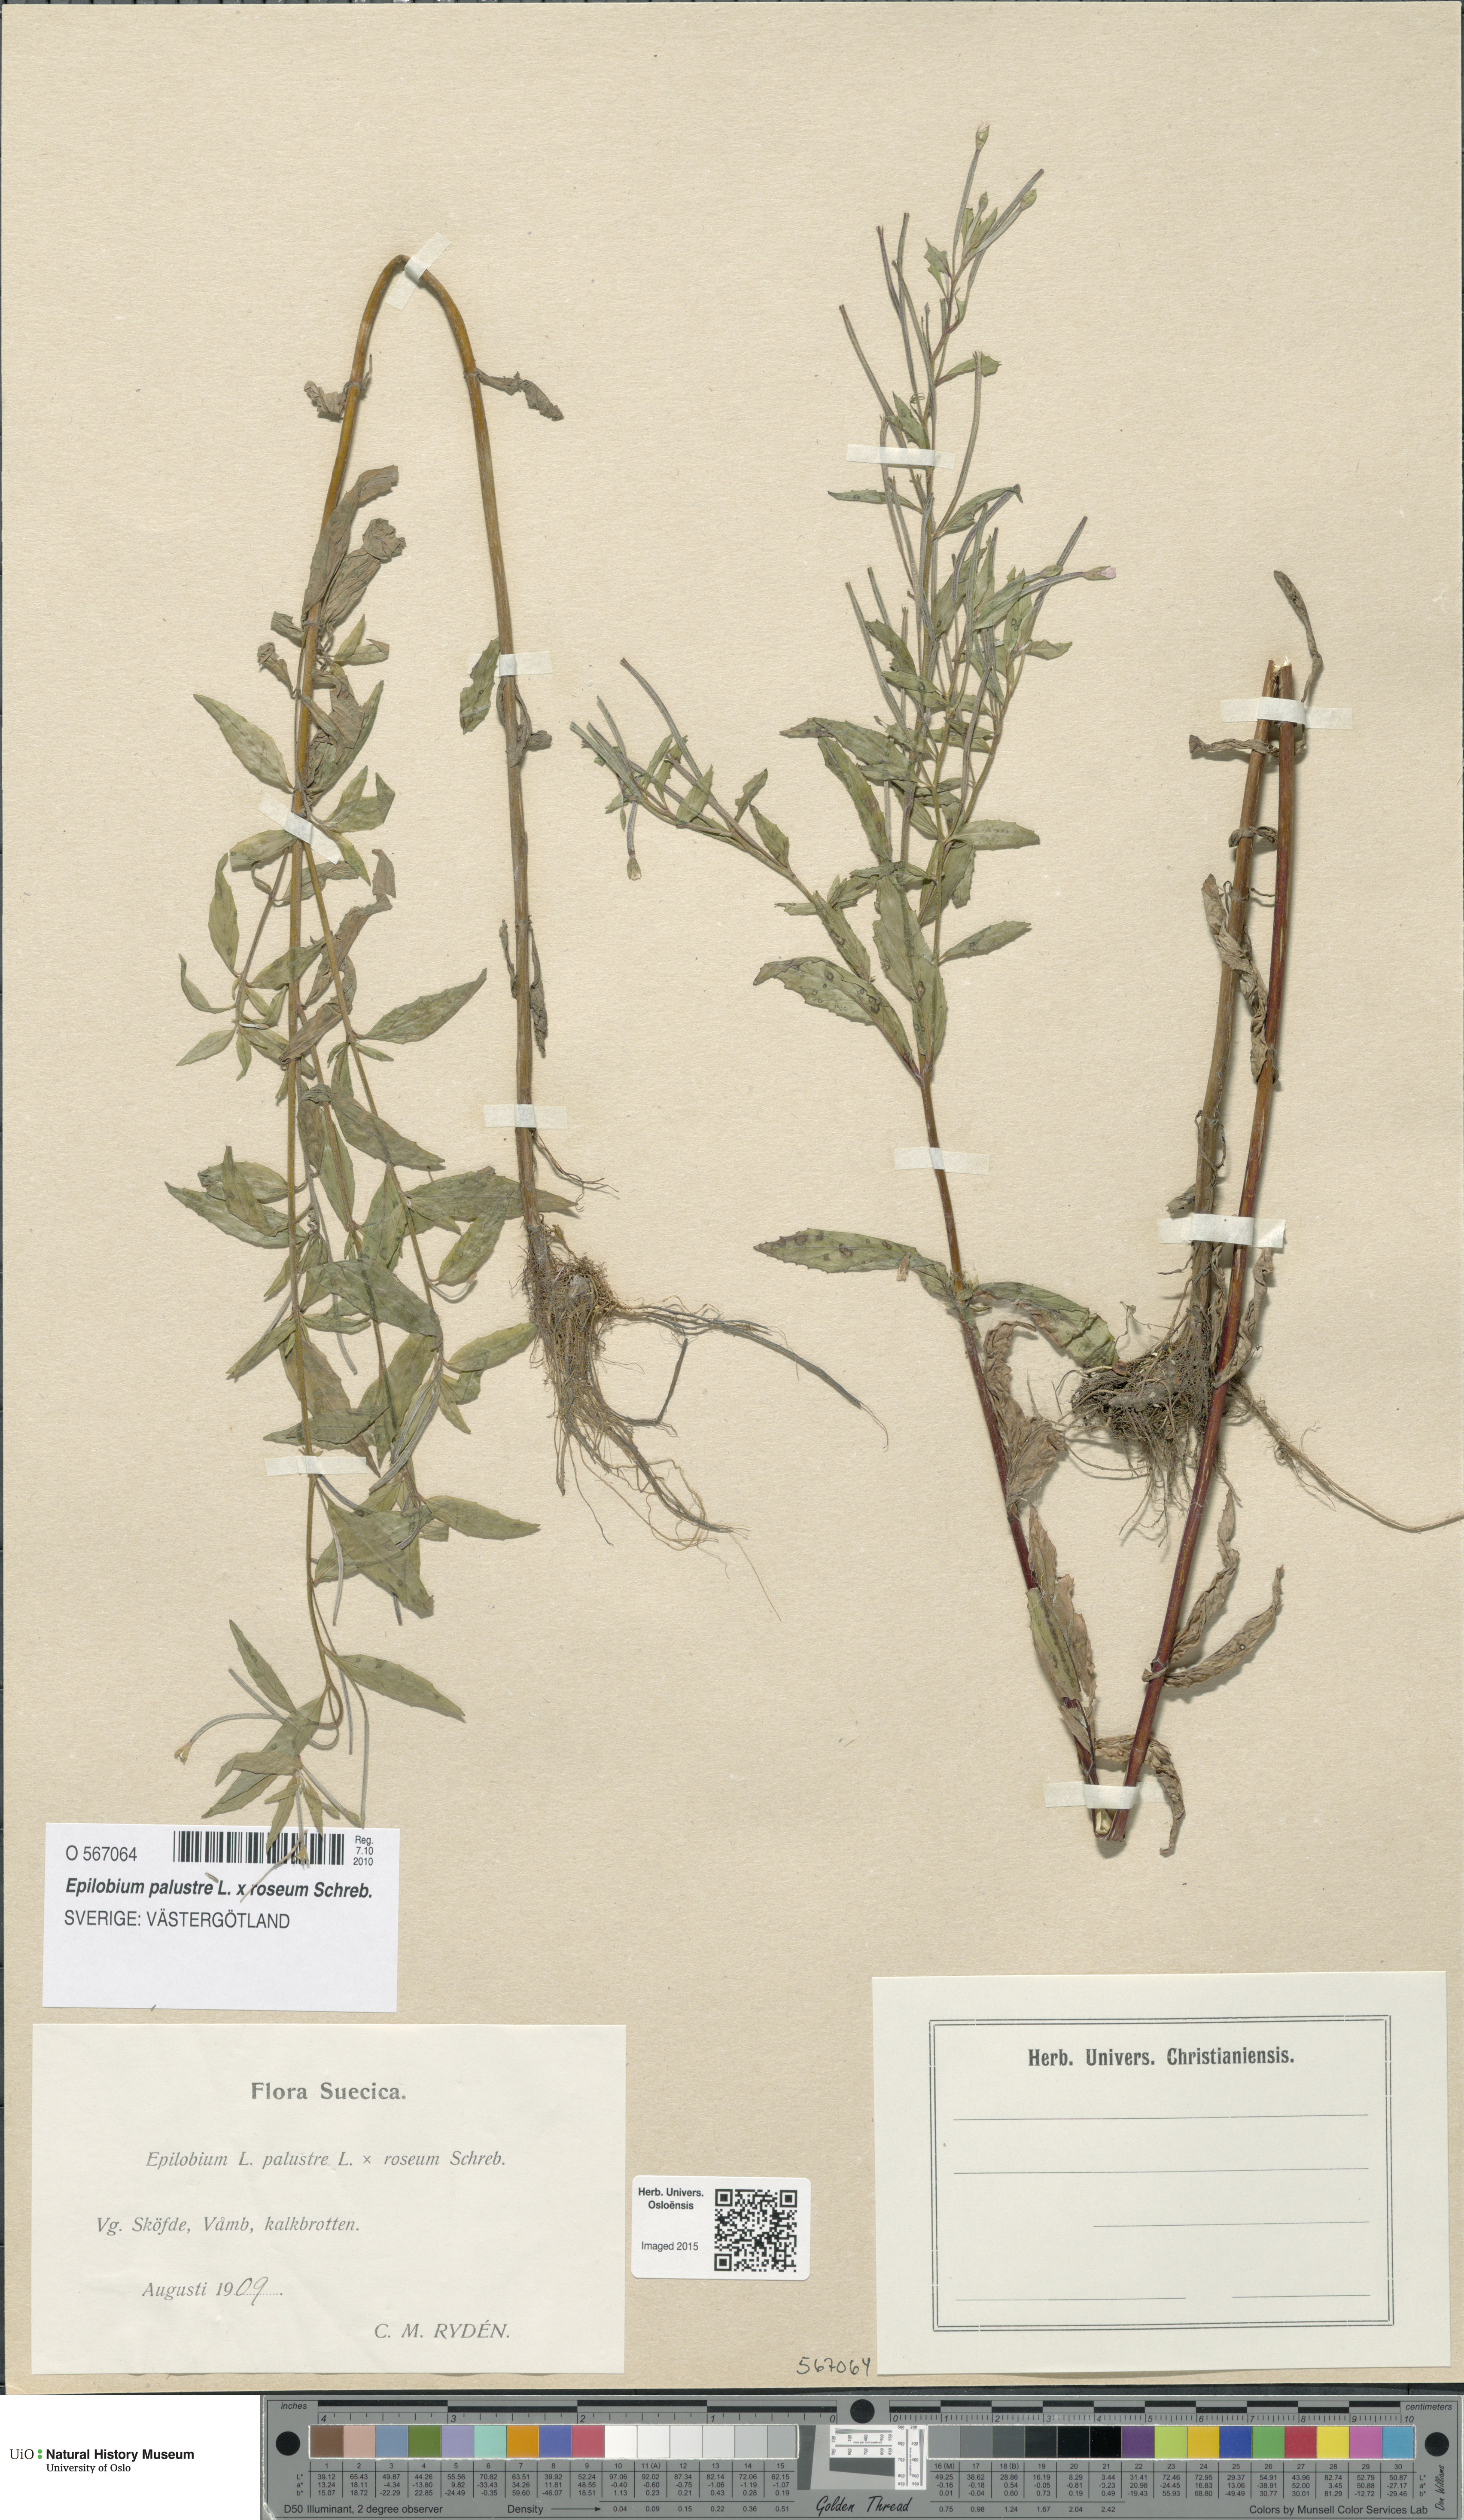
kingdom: Plantae
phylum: Tracheophyta
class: Magnoliopsida
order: Myrtales
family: Onagraceae
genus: Epilobium
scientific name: Epilobium
